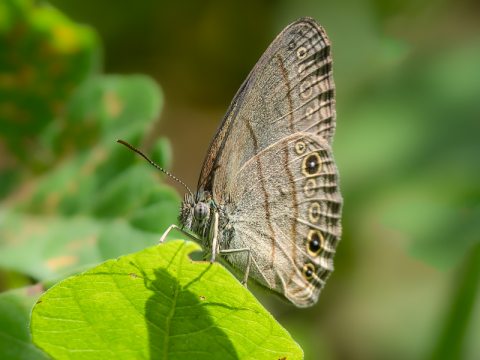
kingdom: Animalia
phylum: Arthropoda
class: Insecta
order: Lepidoptera
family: Nymphalidae
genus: Hermeuptychia
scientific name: Hermeuptychia hermes
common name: Carolina Satyr
